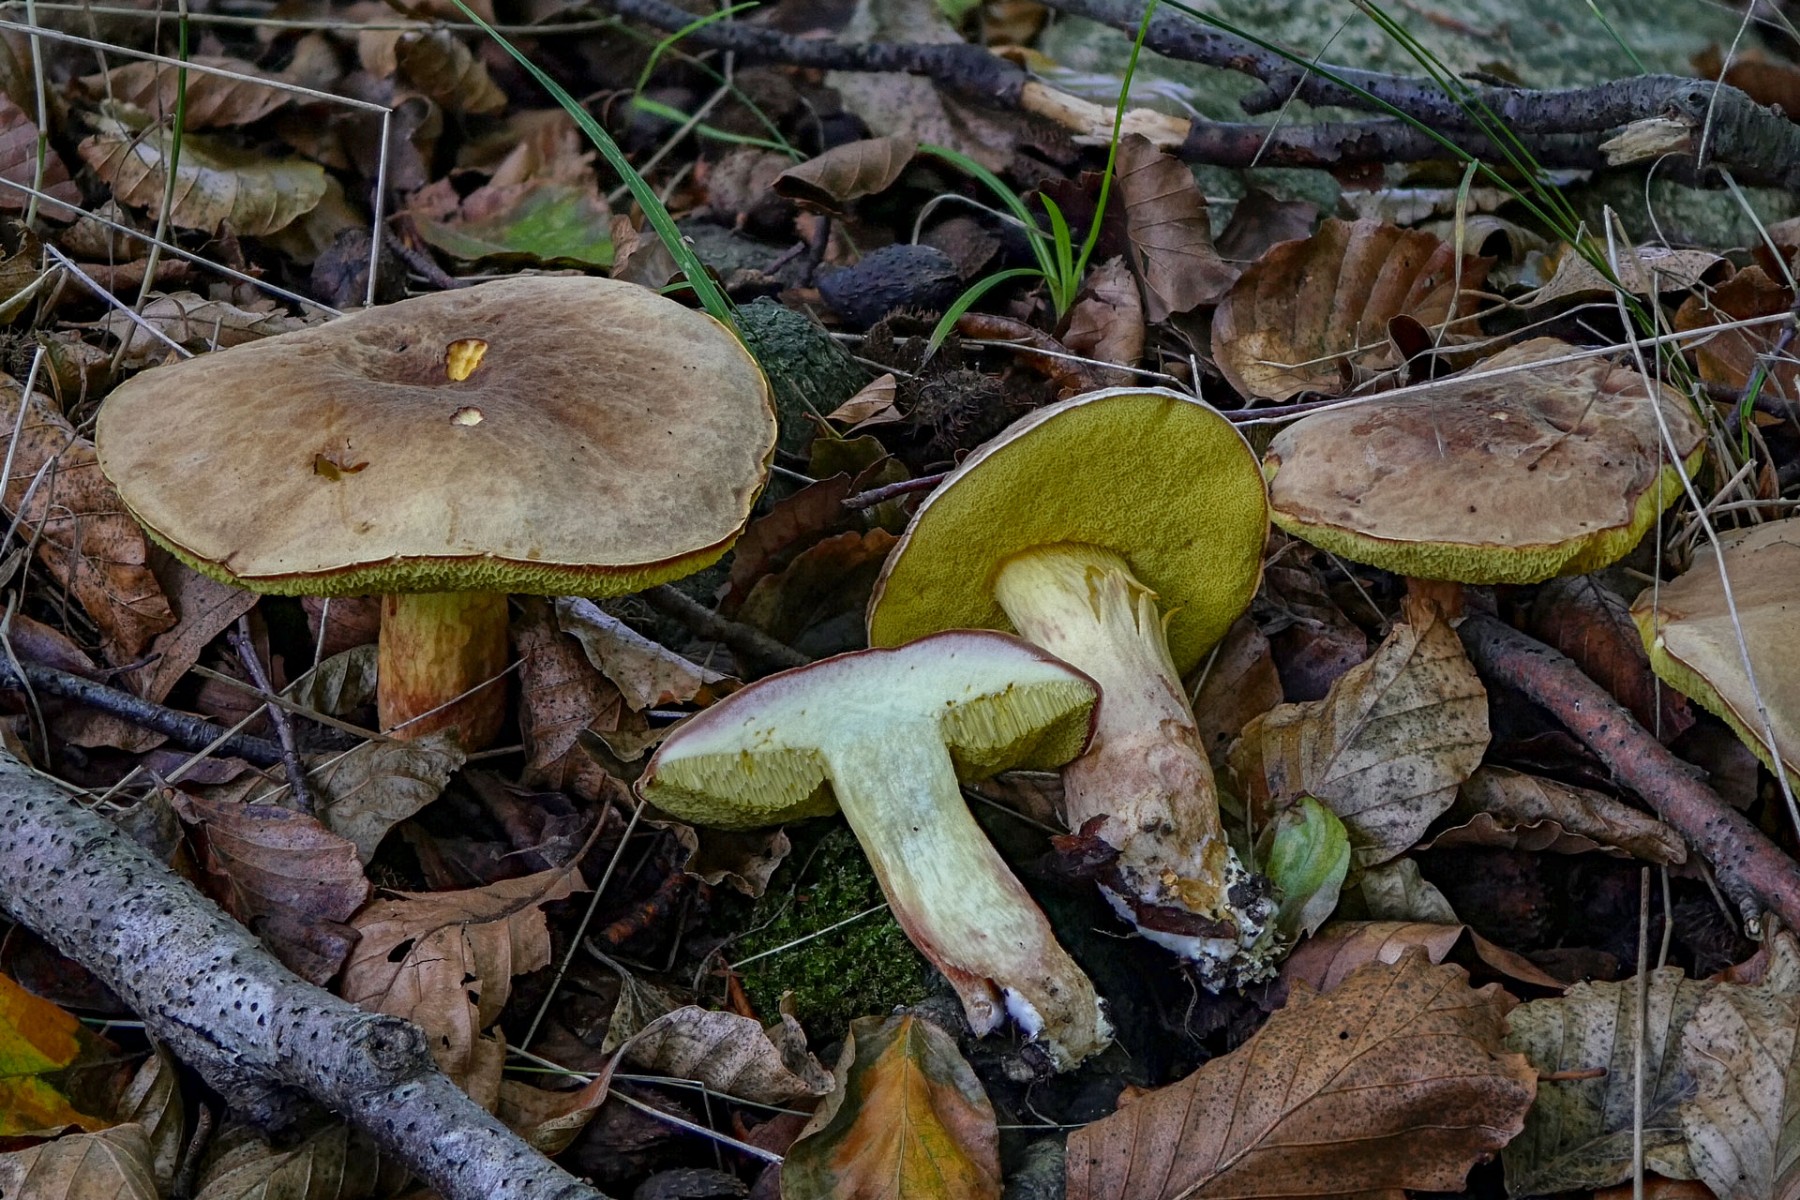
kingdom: Fungi
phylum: Basidiomycota
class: Agaricomycetes
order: Boletales
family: Boletaceae
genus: Xerocomus
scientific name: Xerocomus subtomentosus
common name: filtet rørhat
